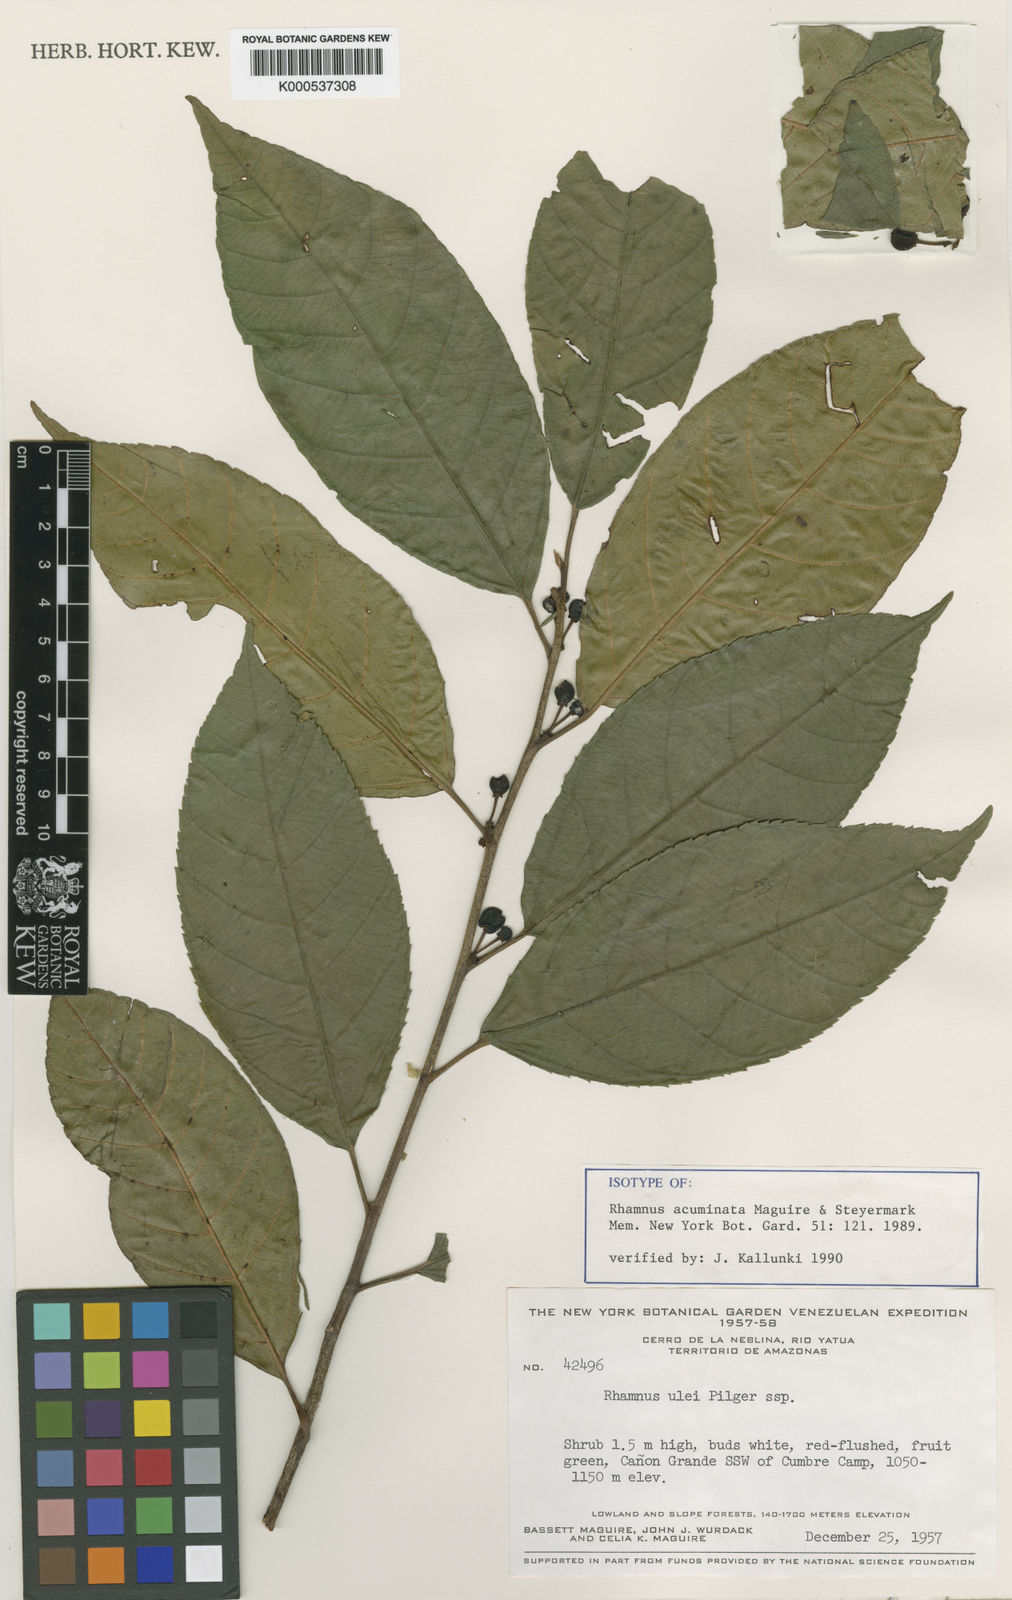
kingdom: Plantae
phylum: Tracheophyta
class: Magnoliopsida
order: Rosales
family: Rhamnaceae
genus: Frangula
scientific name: Frangula acuminata
